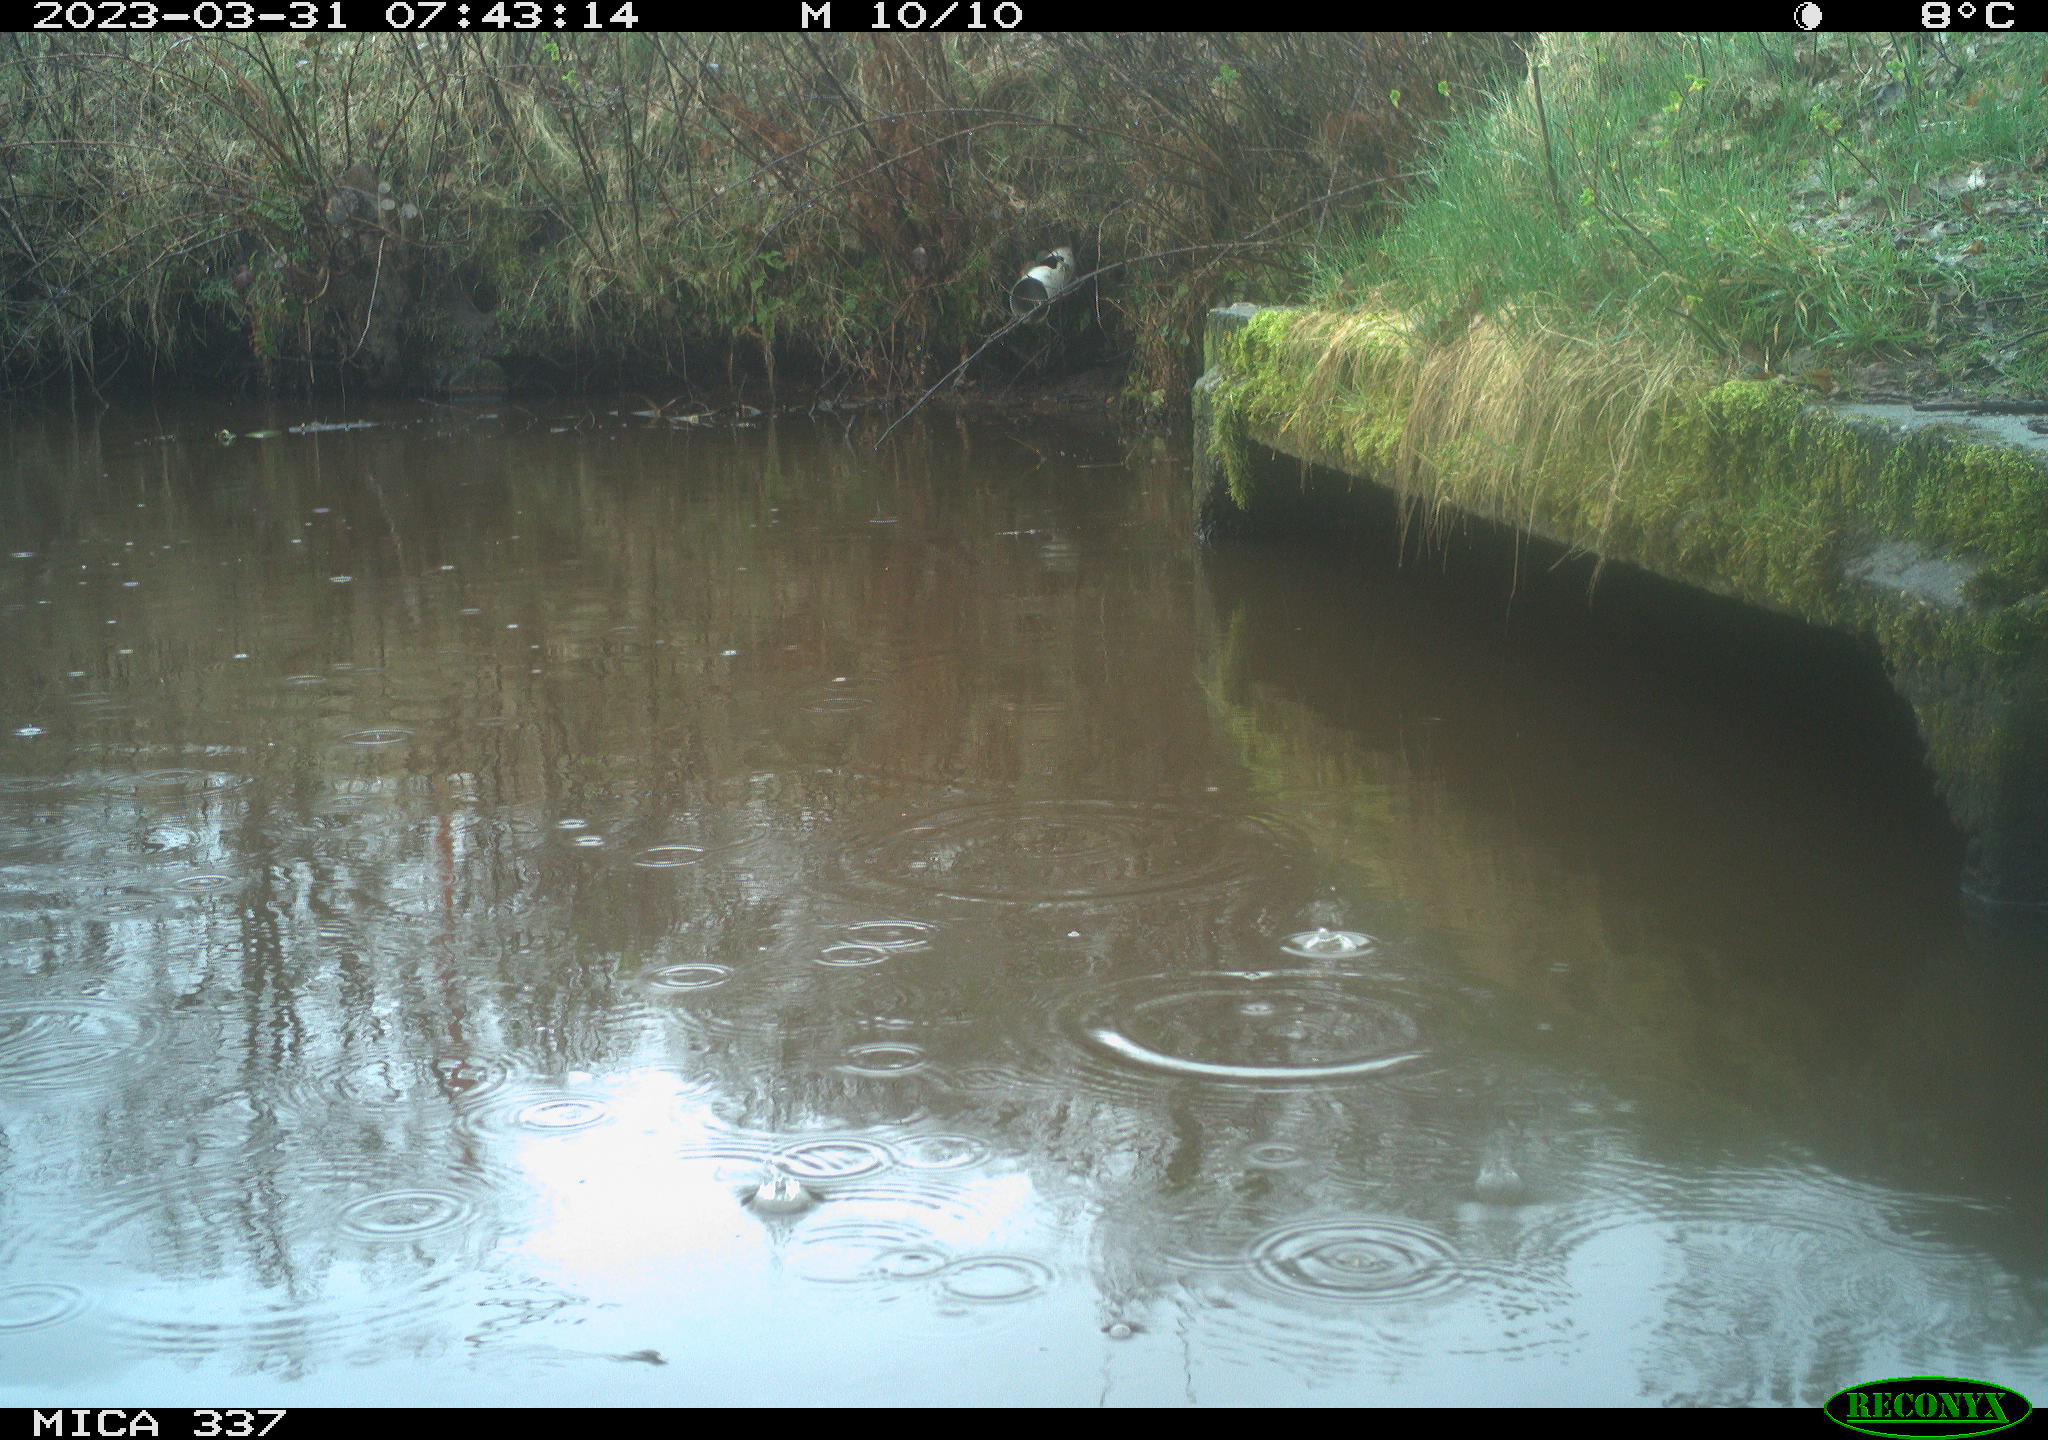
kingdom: Animalia
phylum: Chordata
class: Aves
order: Gruiformes
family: Rallidae
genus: Gallinula
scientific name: Gallinula chloropus
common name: Common moorhen
